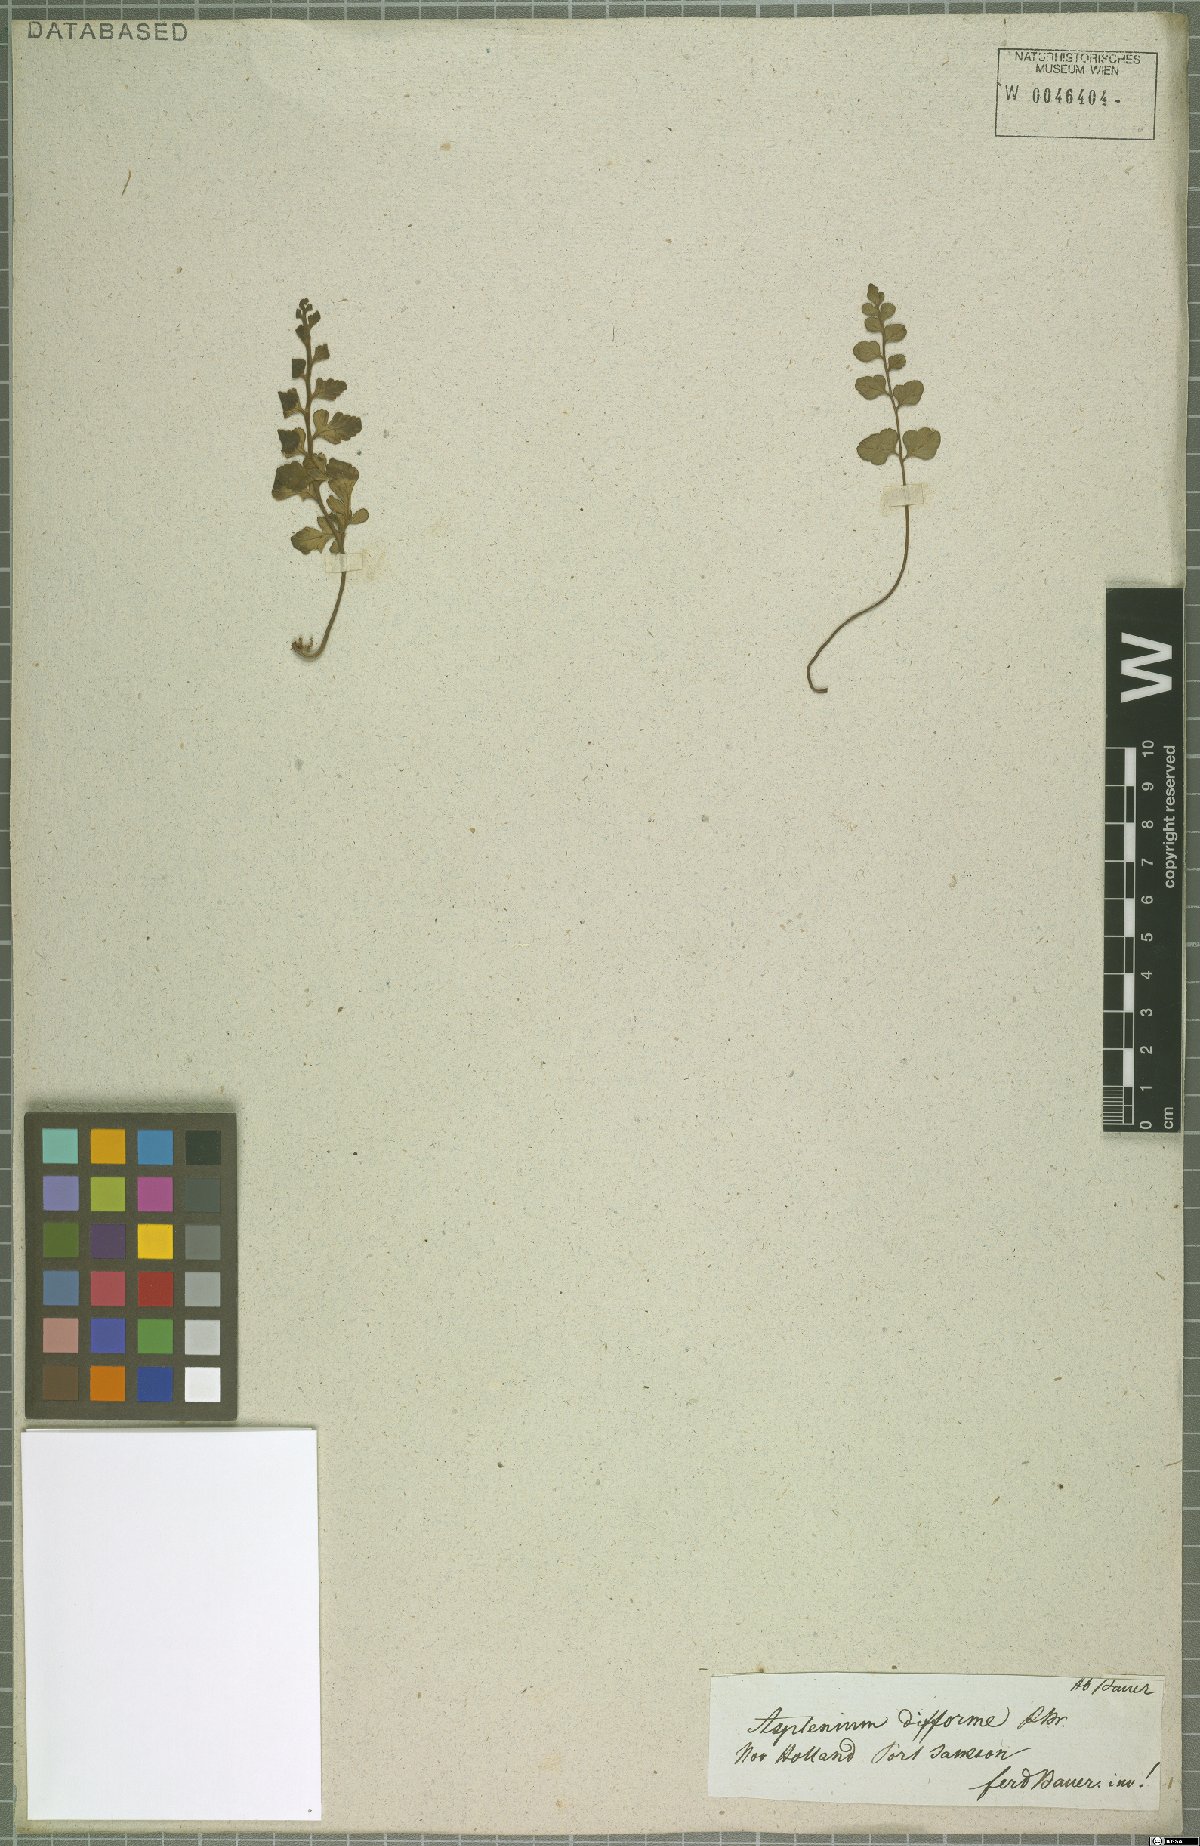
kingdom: Plantae
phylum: Tracheophyta
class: Polypodiopsida
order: Polypodiales
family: Aspleniaceae
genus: Asplenium
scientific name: Asplenium difforme
